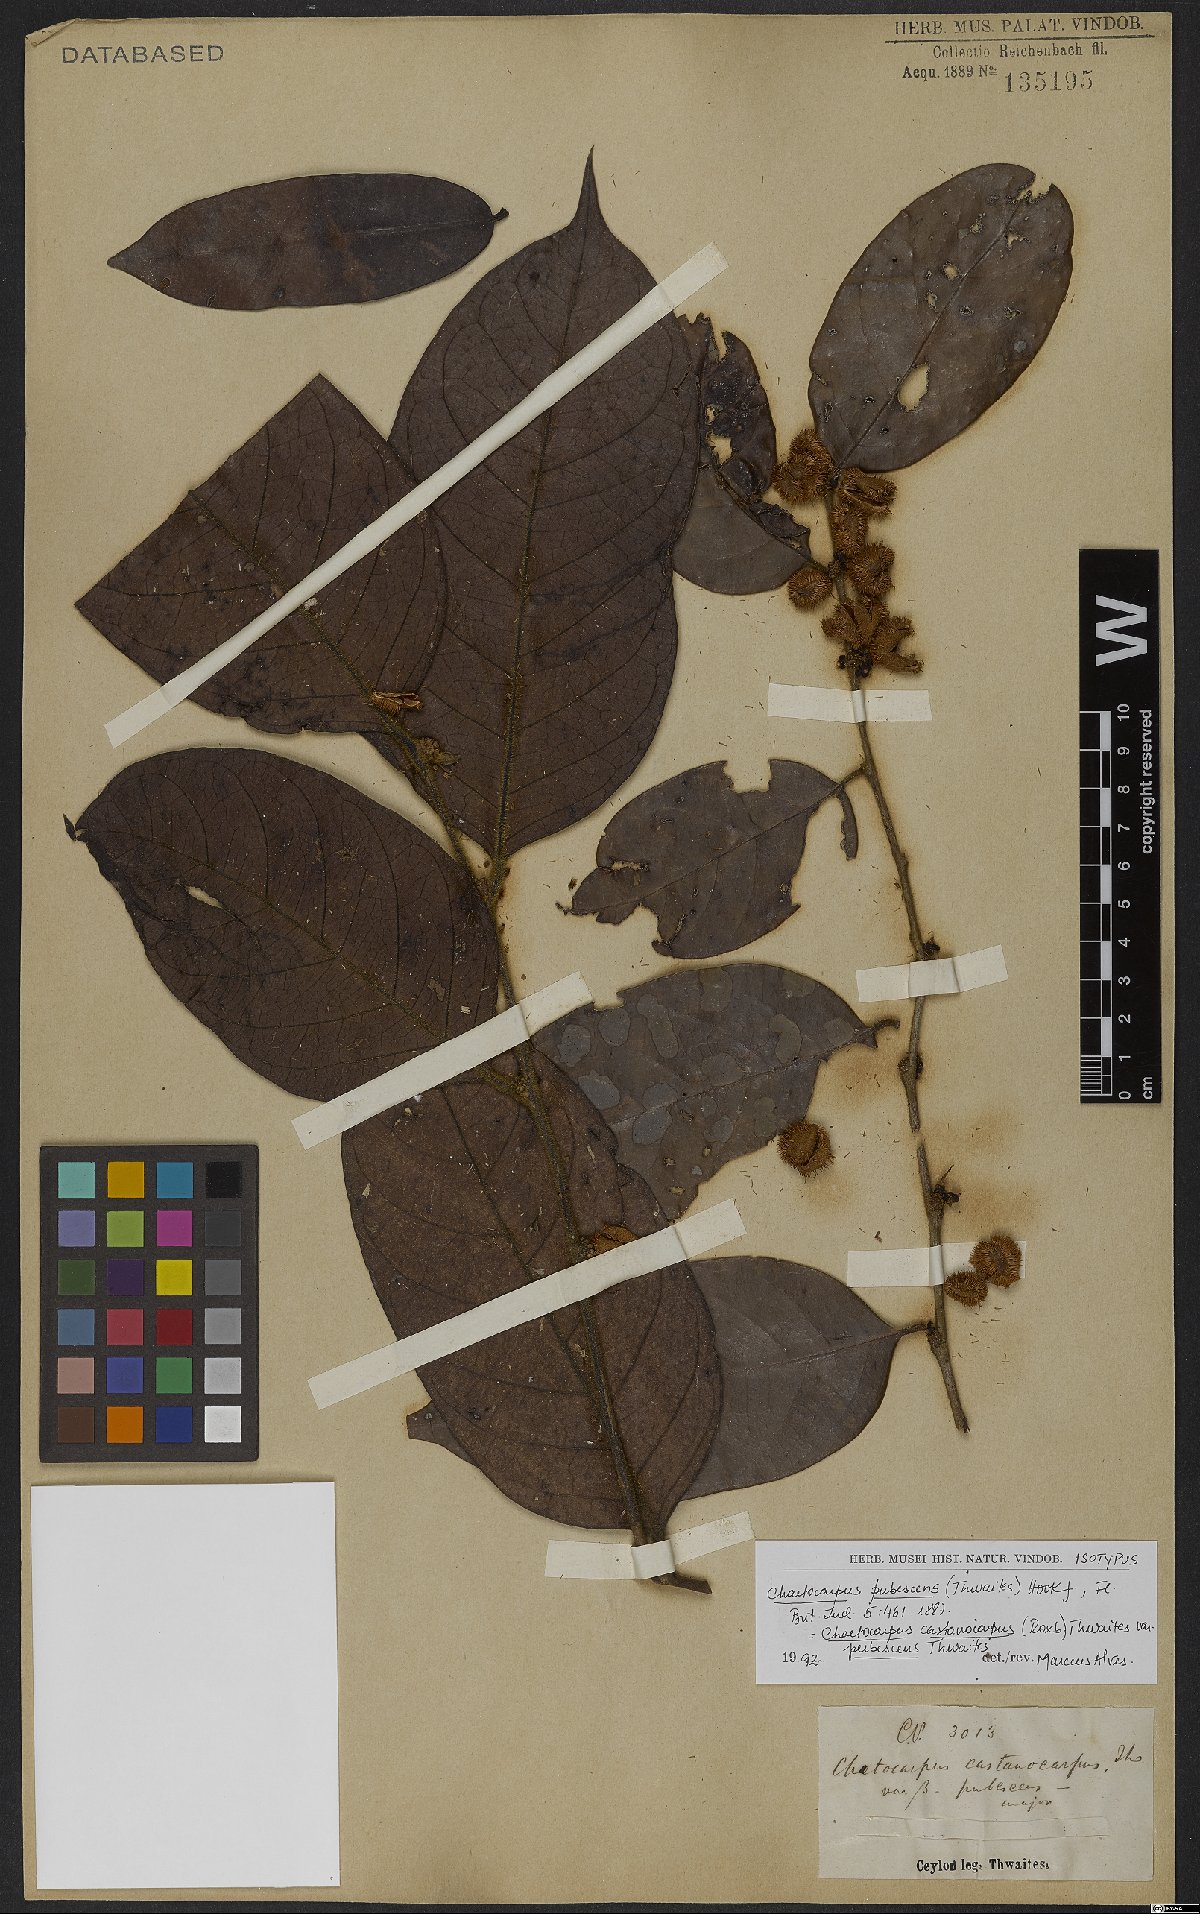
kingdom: Plantae
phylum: Tracheophyta
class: Magnoliopsida
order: Malpighiales
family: Peraceae
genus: Chaetocarpus
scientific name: Chaetocarpus pubescens
